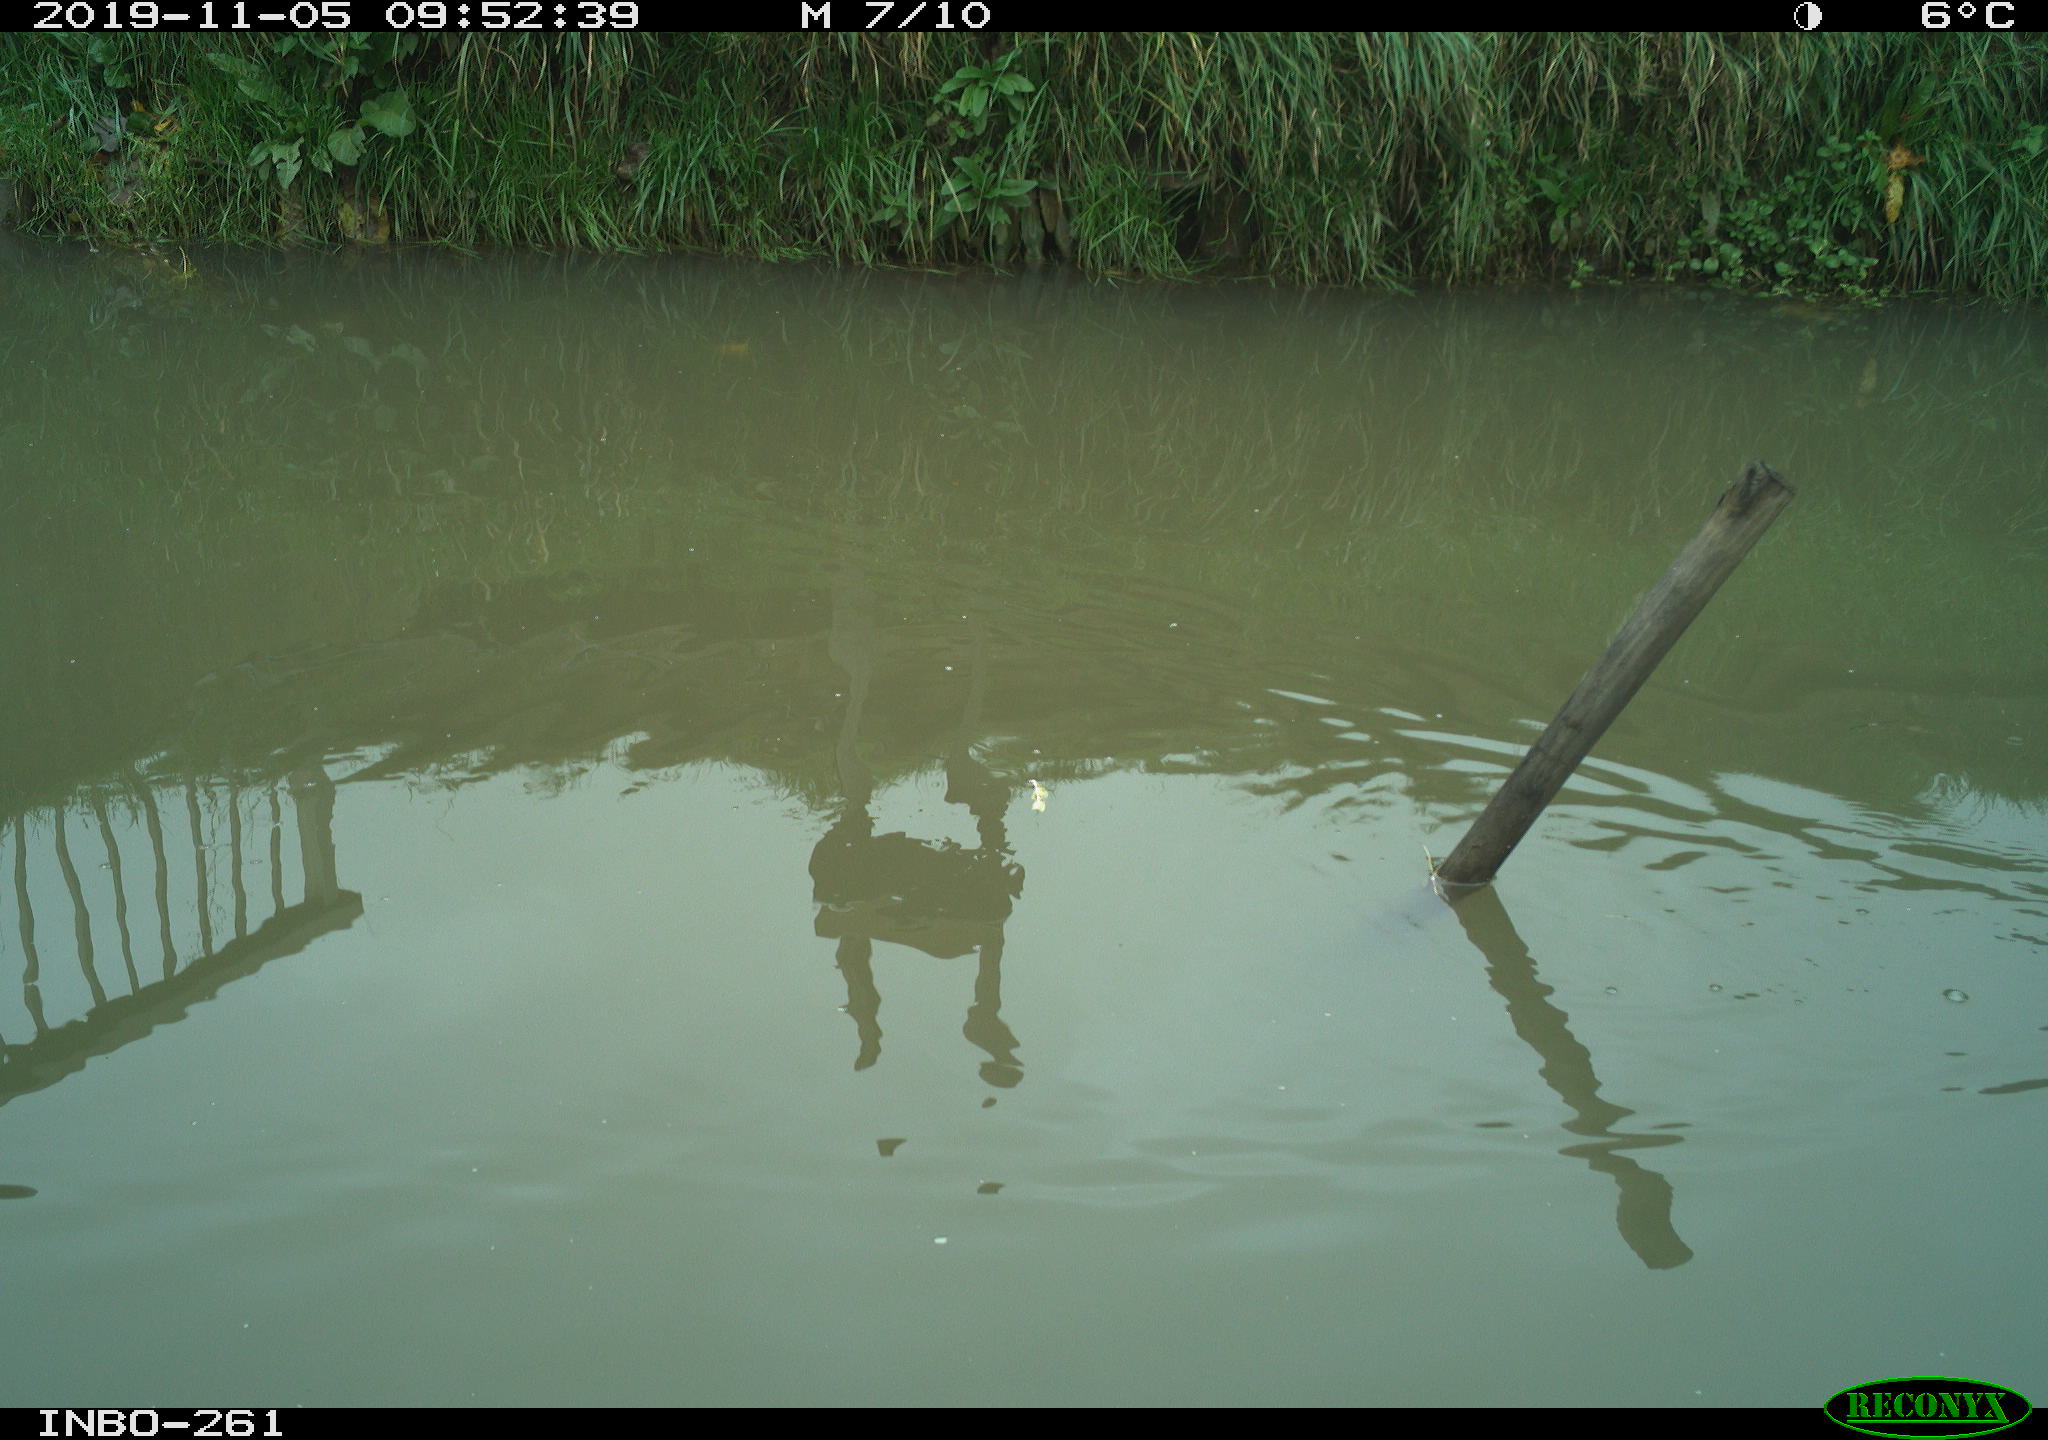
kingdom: Animalia
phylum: Chordata
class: Aves
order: Gruiformes
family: Rallidae
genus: Gallinula
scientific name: Gallinula chloropus
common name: Common moorhen
